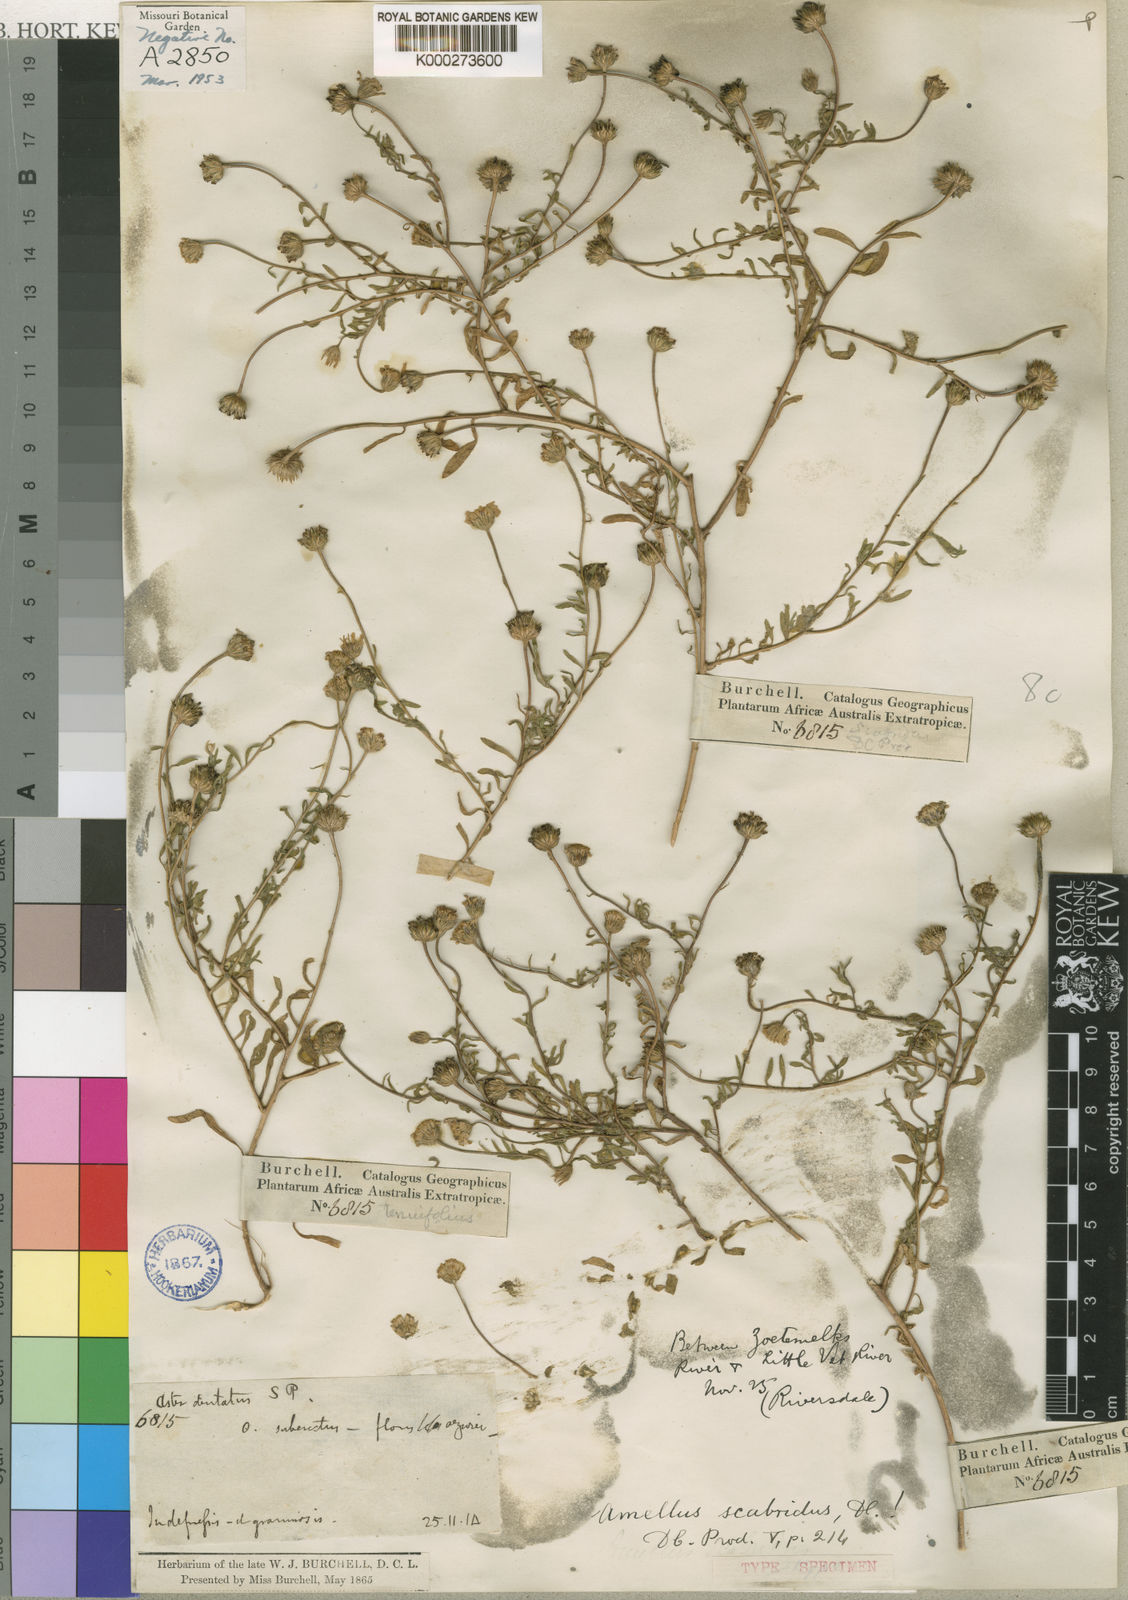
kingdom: Plantae
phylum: Tracheophyta
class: Magnoliopsida
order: Asterales
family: Asteraceae
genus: Amellus
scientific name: Amellus strigosus
